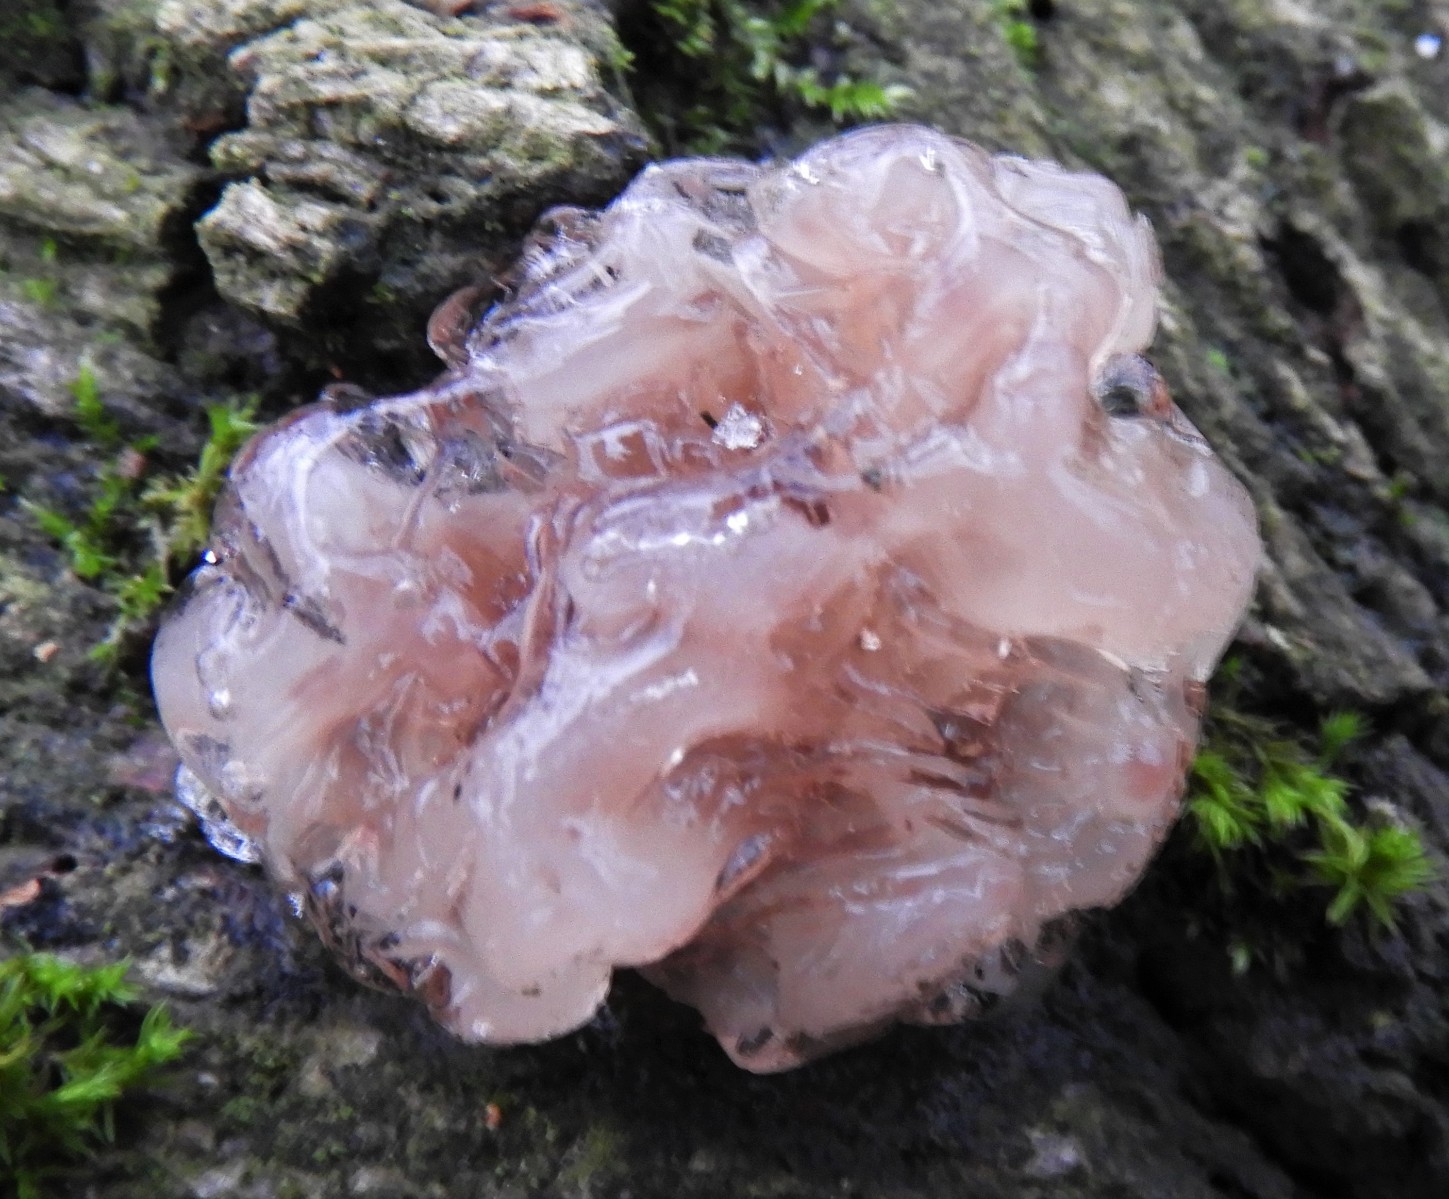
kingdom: Fungi
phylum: Ascomycota
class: Leotiomycetes
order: Helotiales
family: Gelatinodiscaceae
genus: Ascotremella
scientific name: Ascotremella faginea
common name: hjerne-bævreskive
